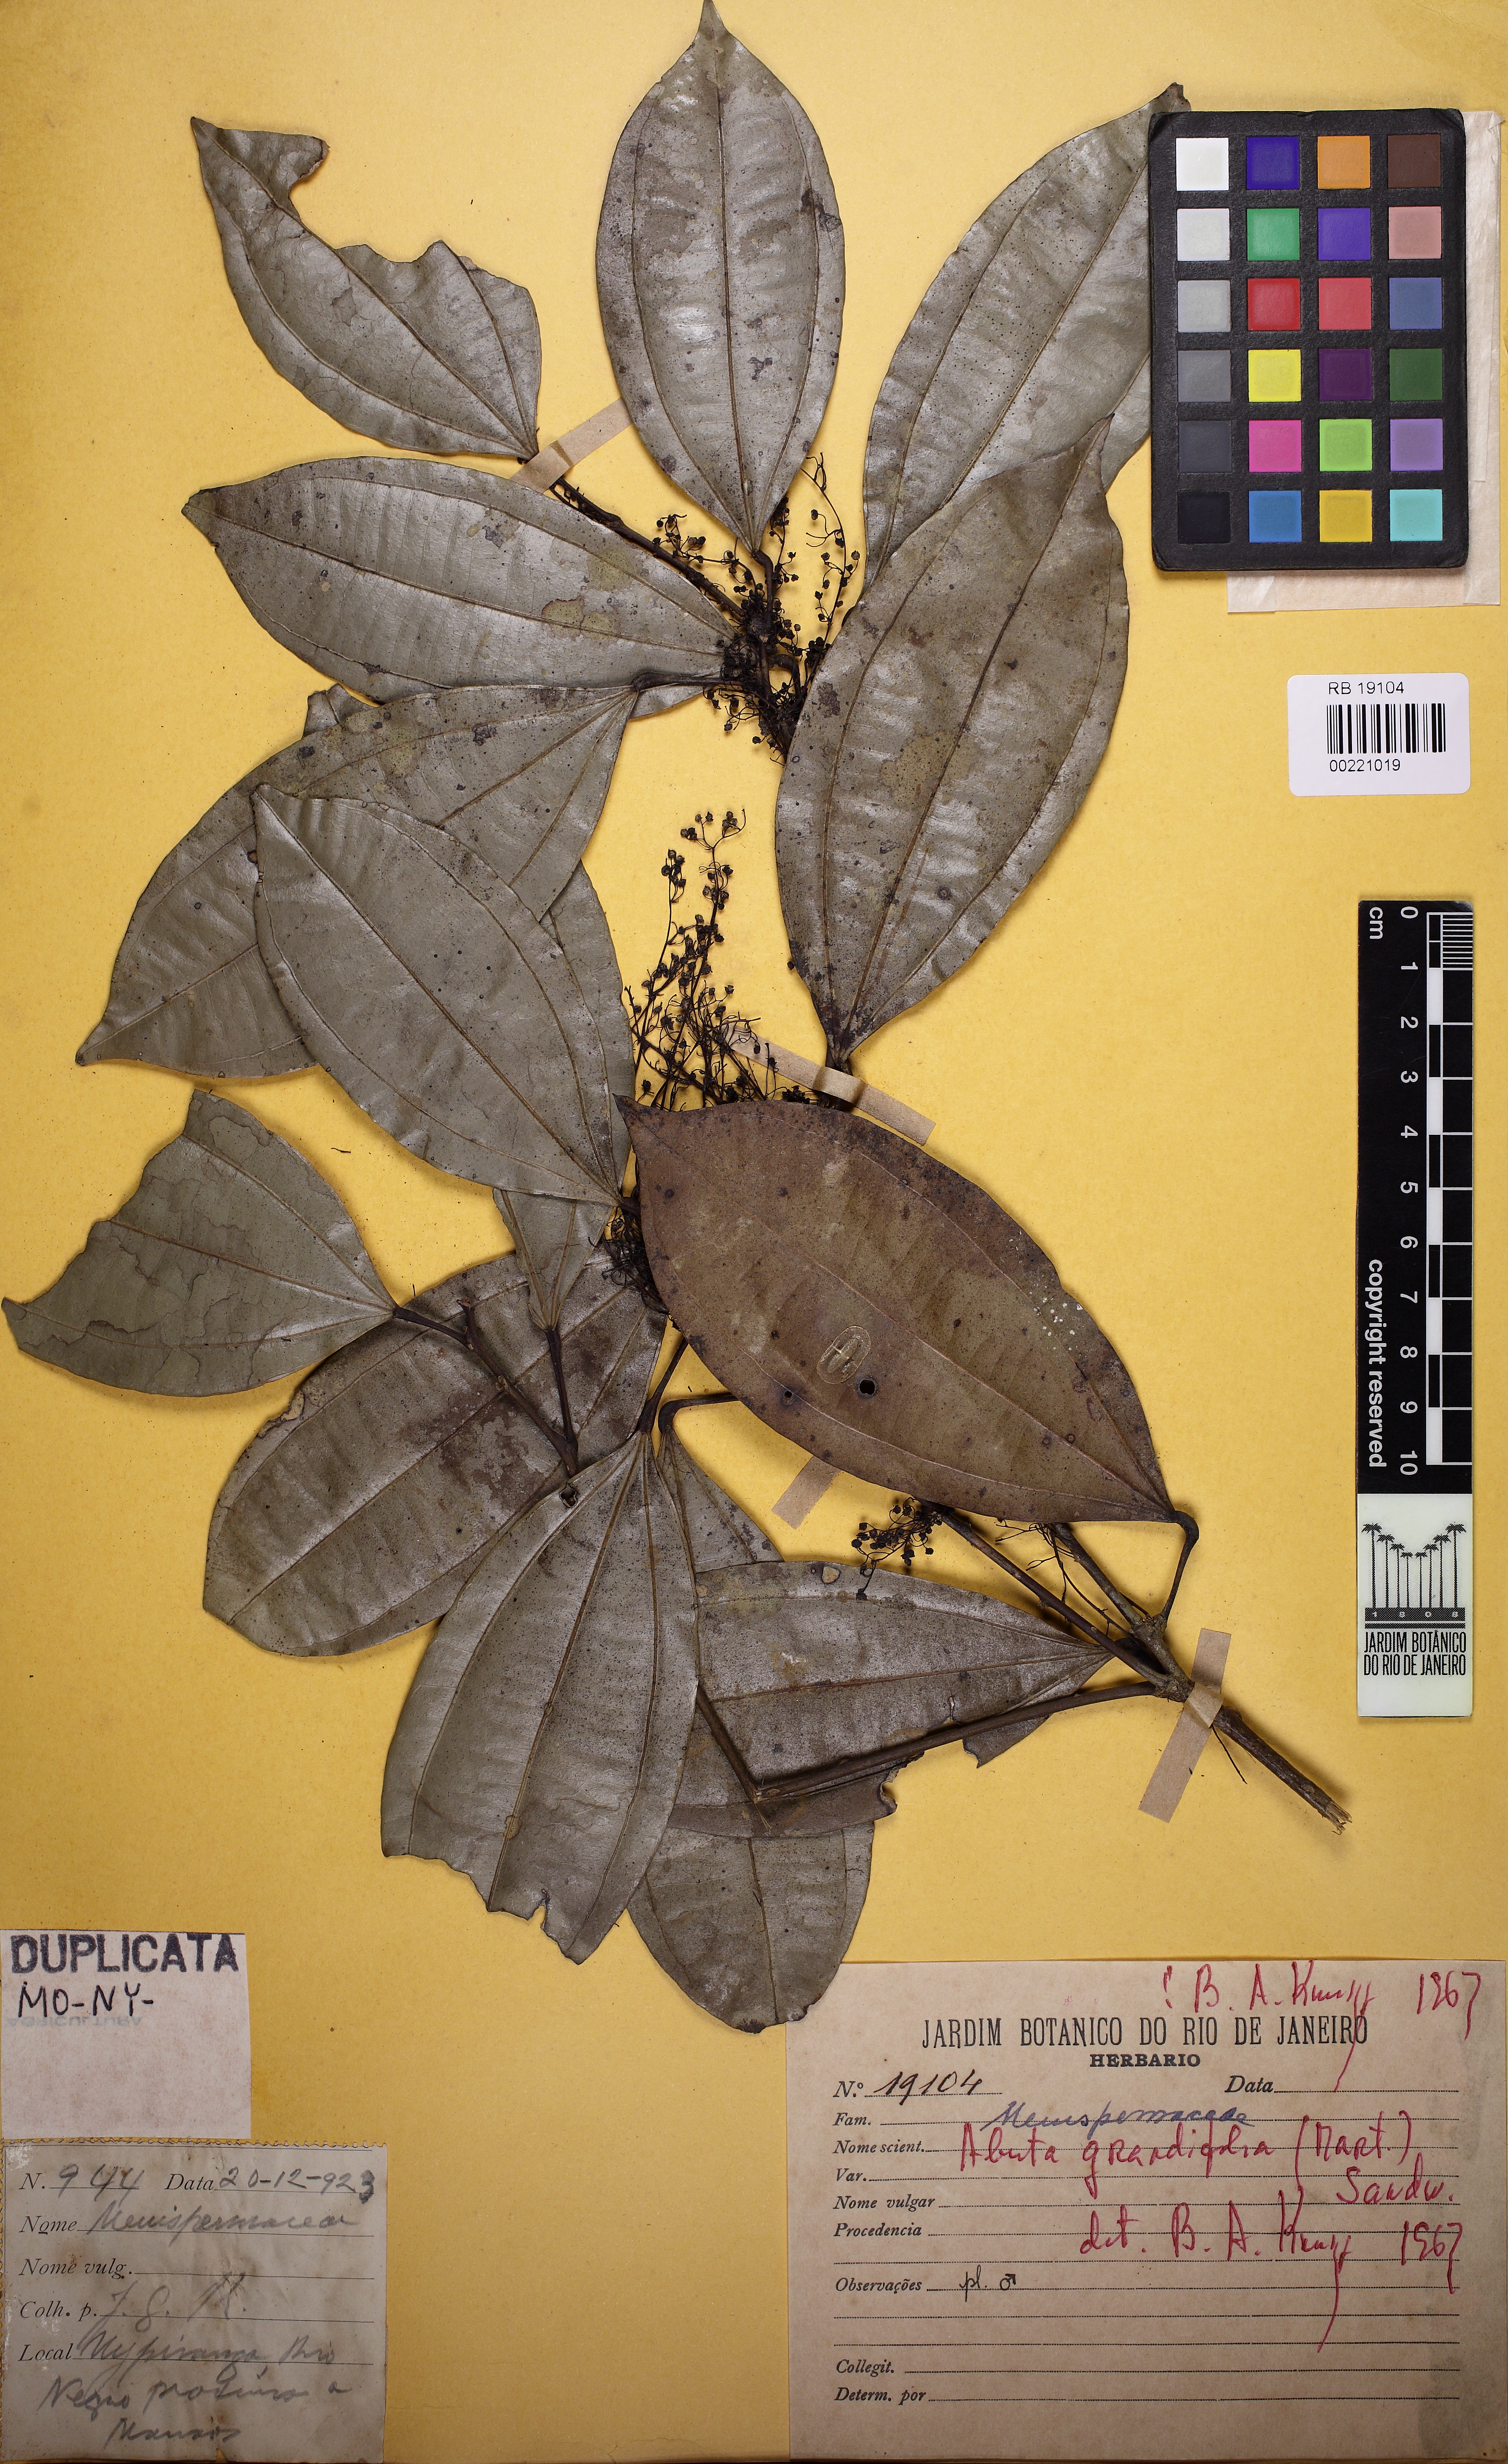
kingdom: Plantae
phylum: Tracheophyta
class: Magnoliopsida
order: Ranunculales
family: Menispermaceae
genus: Abuta
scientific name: Abuta grandifolia
